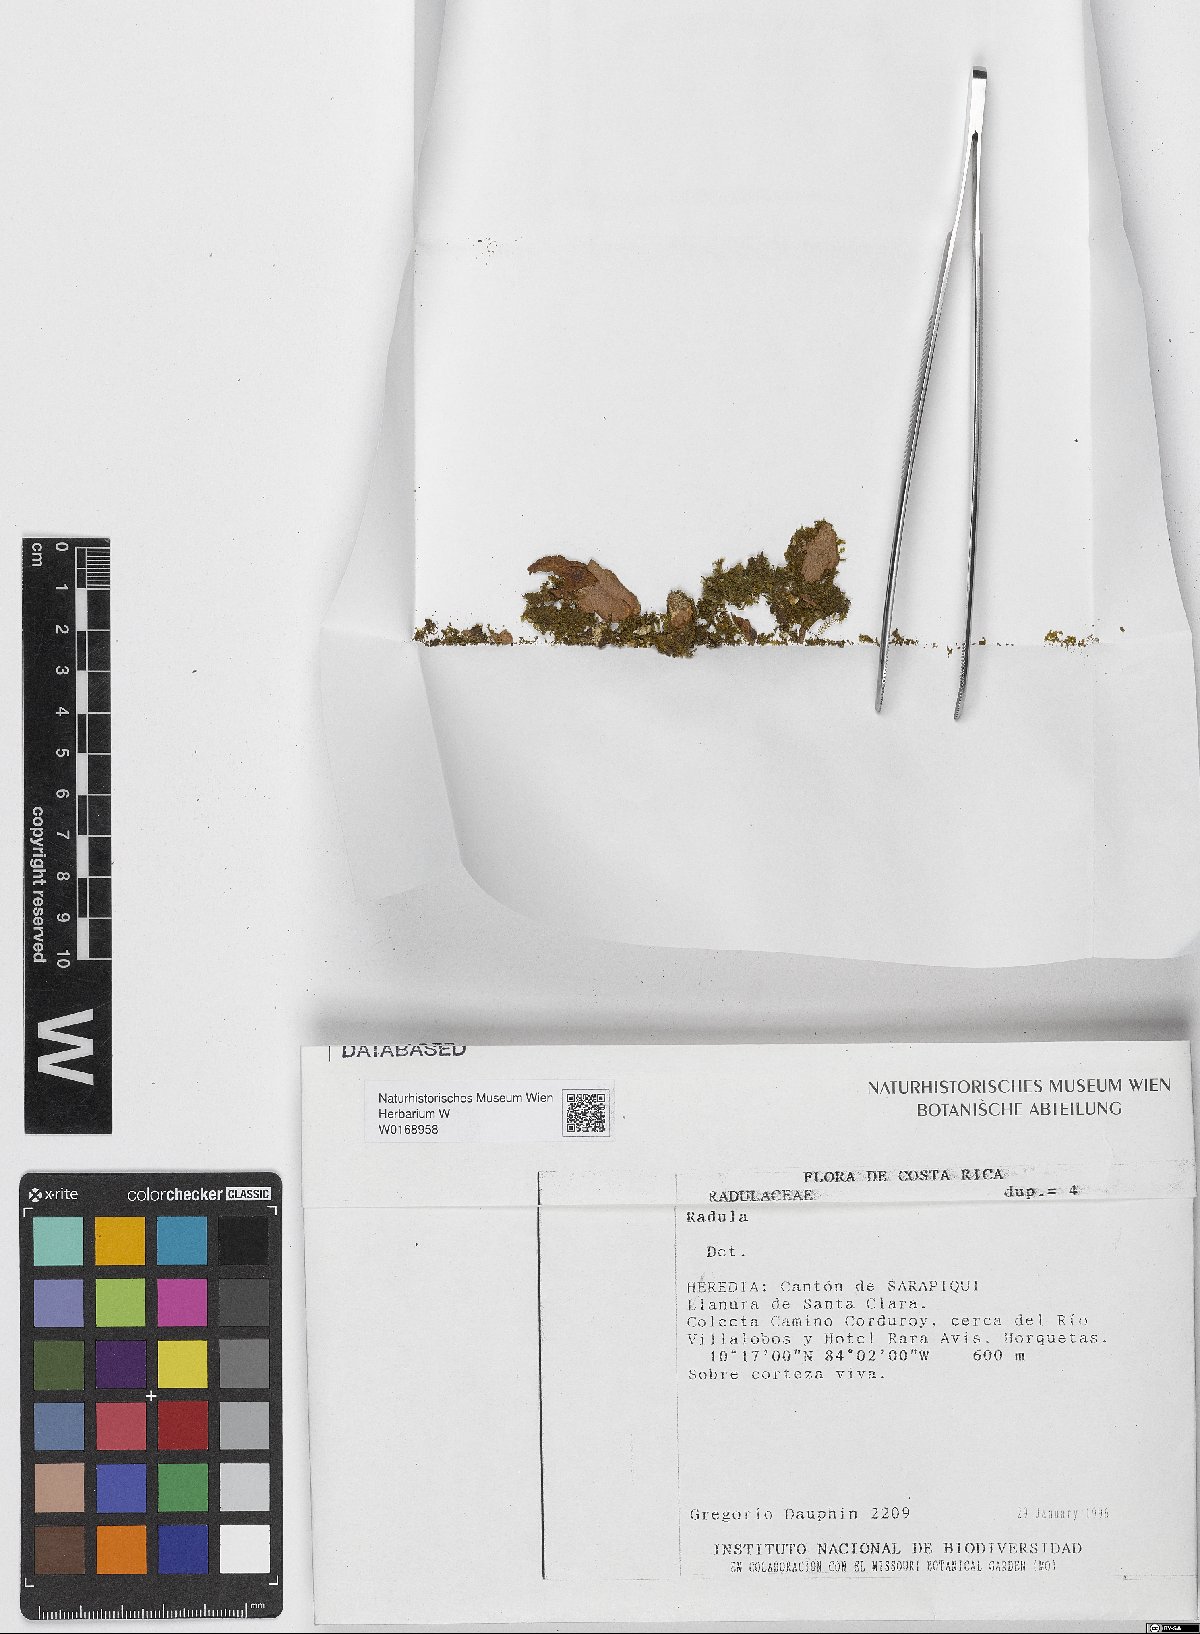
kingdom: Plantae
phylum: Marchantiophyta
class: Jungermanniopsida
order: Porellales
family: Radulaceae
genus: Radula
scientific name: Radula
